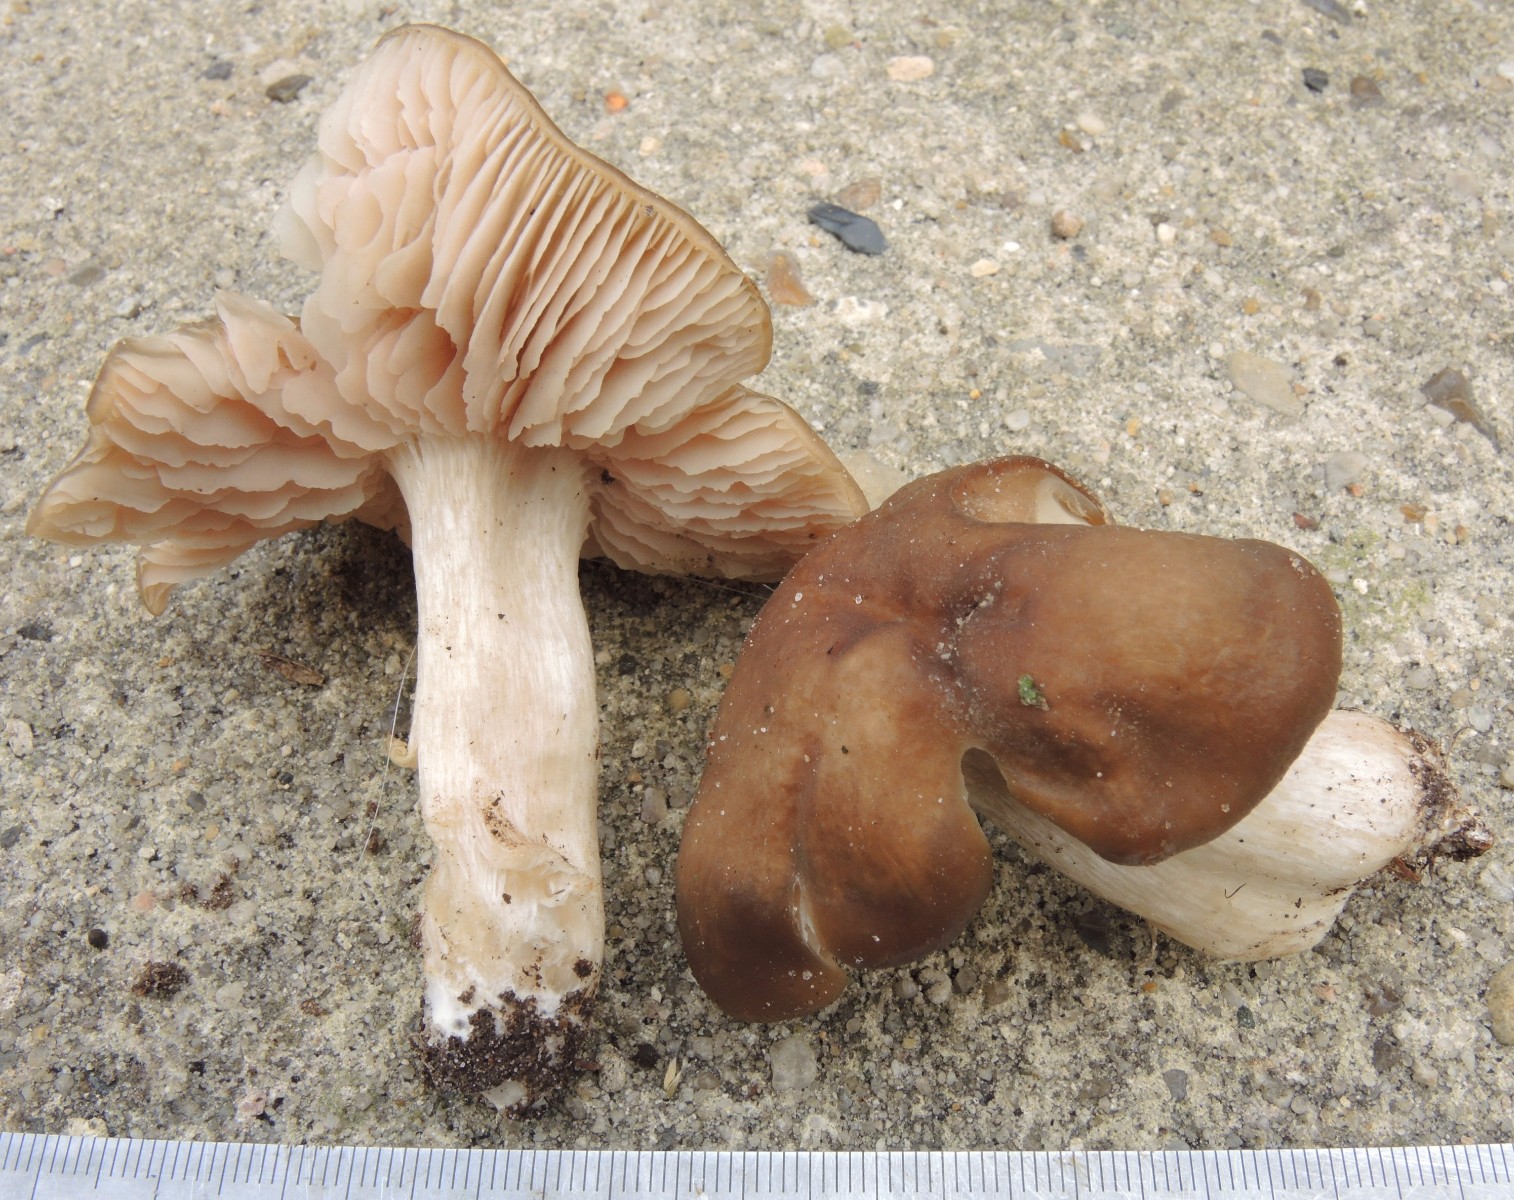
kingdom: Fungi
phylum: Basidiomycota
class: Agaricomycetes
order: Agaricales
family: Entolomataceae
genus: Entoloma
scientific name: Entoloma sericatum
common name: rank rødblad
